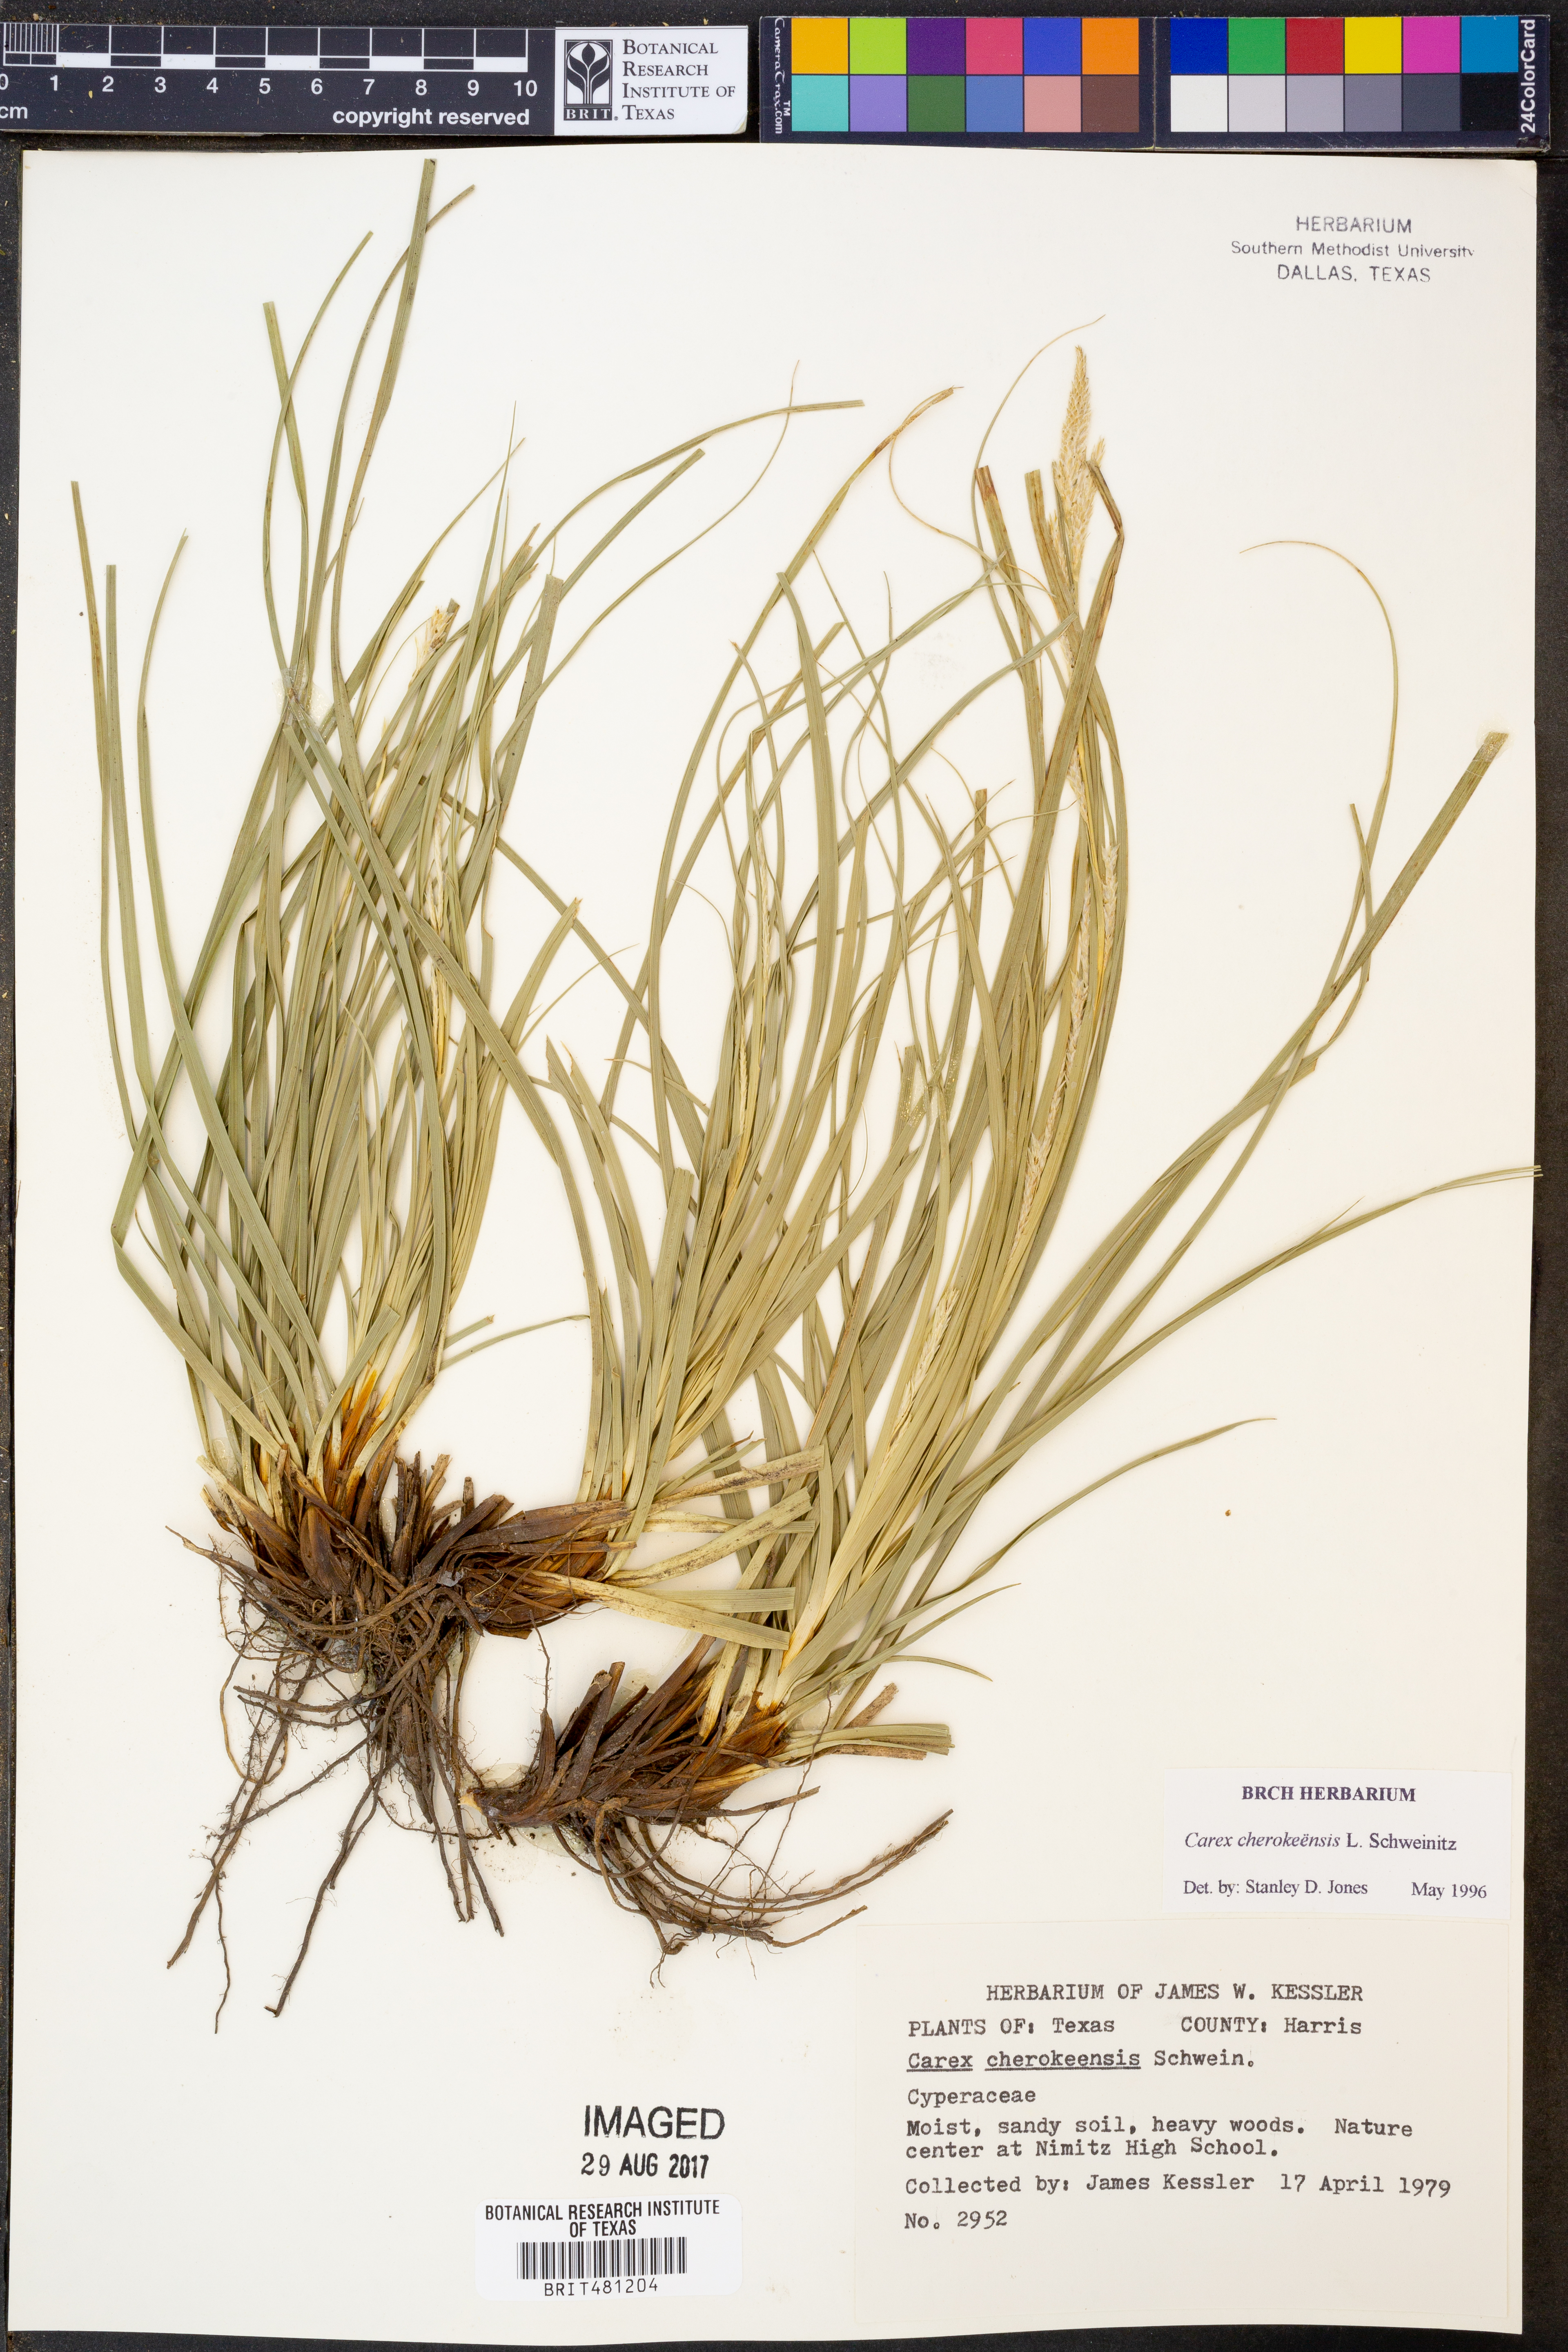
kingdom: Plantae
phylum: Tracheophyta
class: Liliopsida
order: Poales
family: Cyperaceae
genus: Carex
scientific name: Carex cherokeensis
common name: Cherokee sedge
